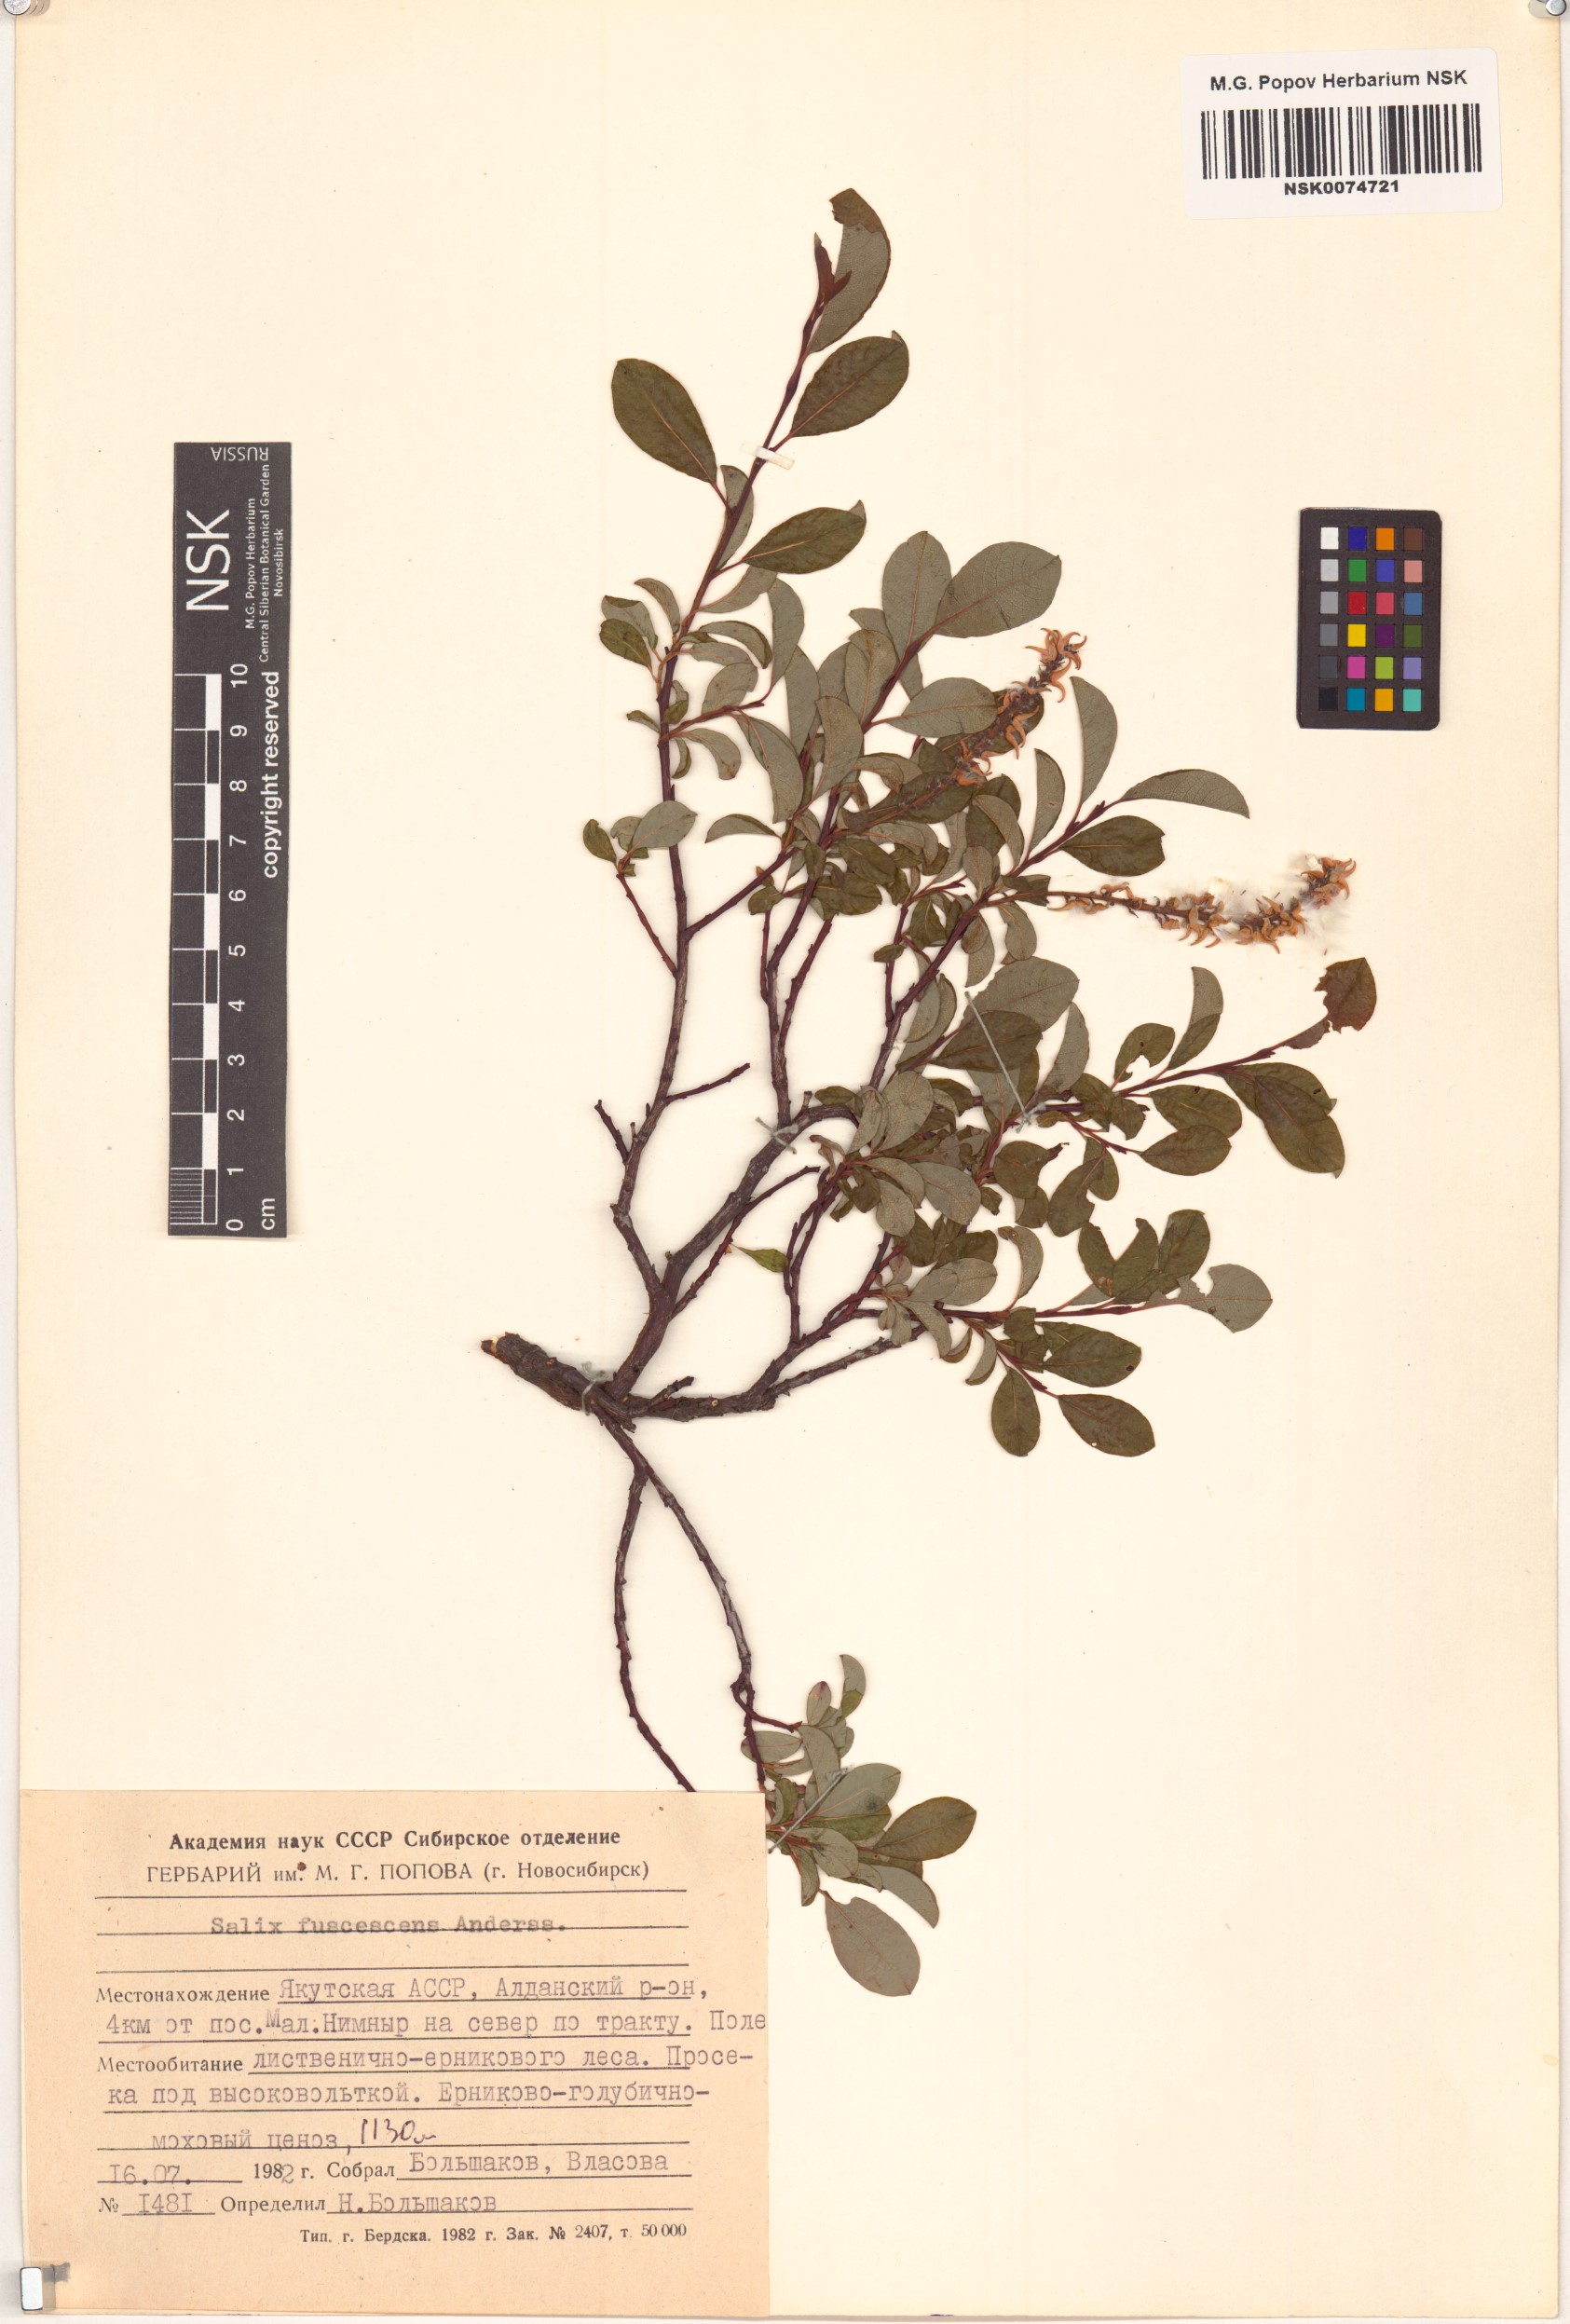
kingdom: Plantae
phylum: Tracheophyta
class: Magnoliopsida
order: Malpighiales
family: Salicaceae
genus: Salix
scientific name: Salix fuscescens
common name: Brownish willow
